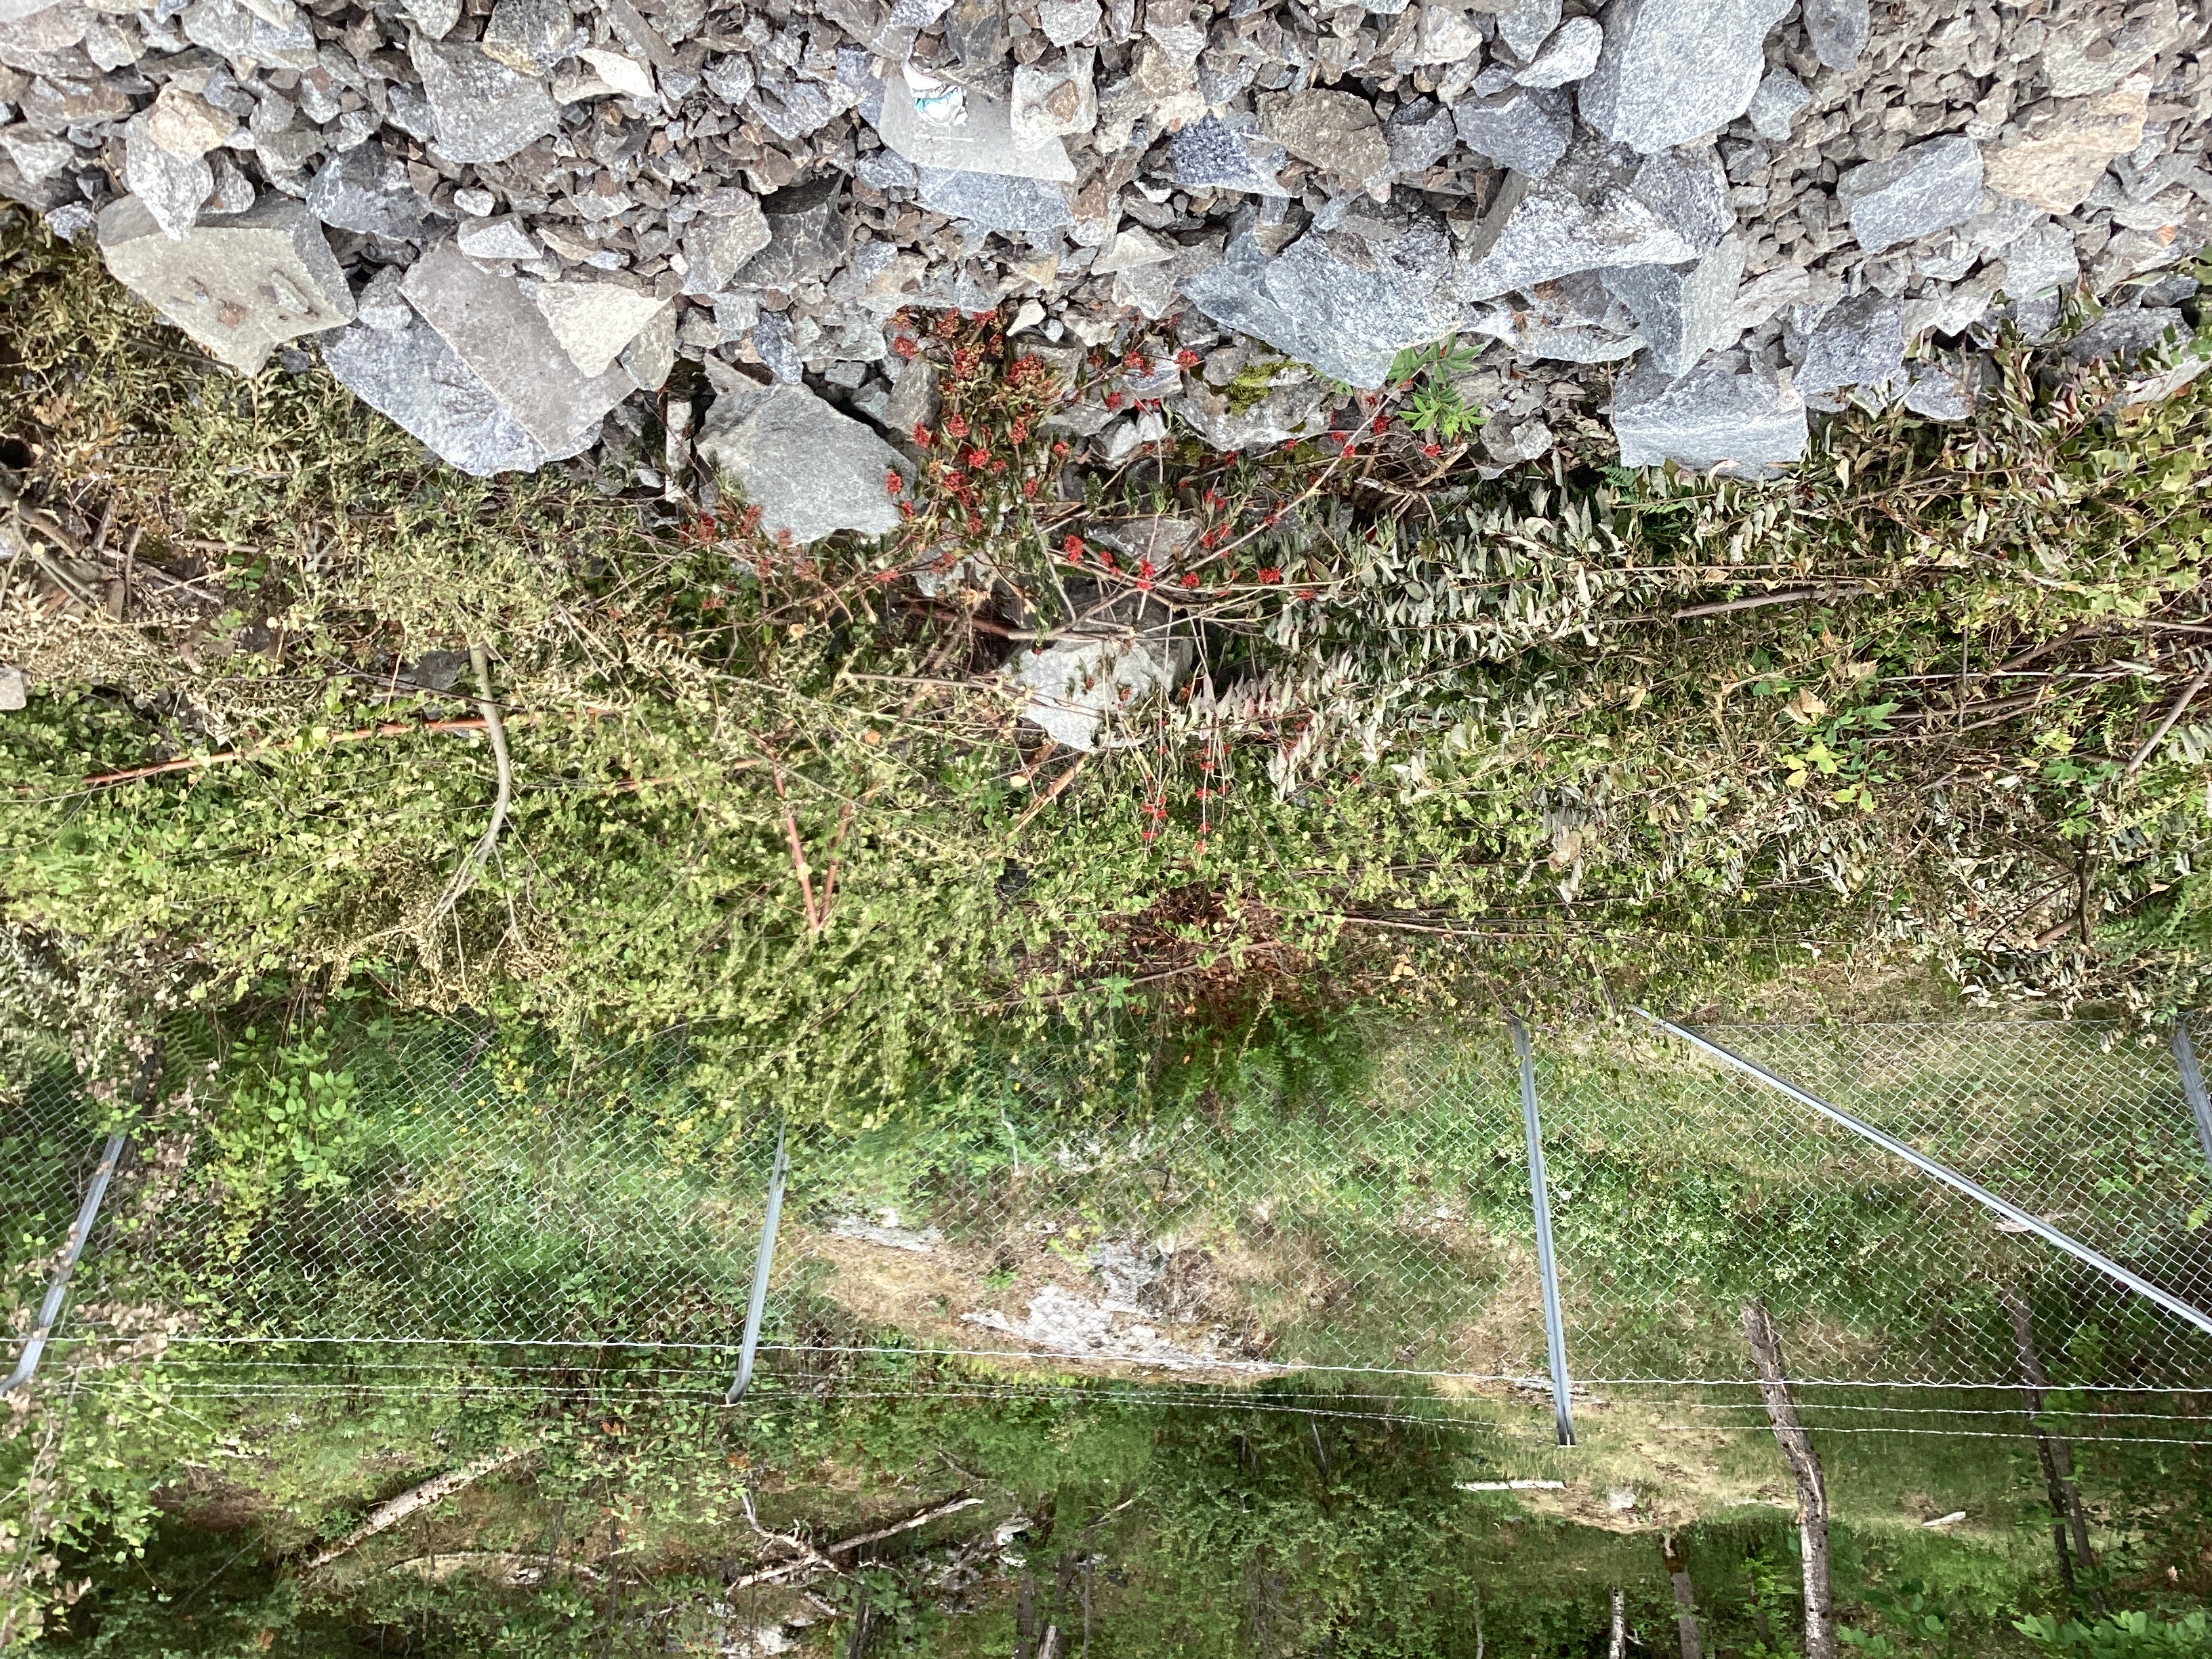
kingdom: Plantae
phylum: Tracheophyta
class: Magnoliopsida
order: Dipsacales
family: Viburnaceae
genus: Sambucus
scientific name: Sambucus racemosa
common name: rødhyll
